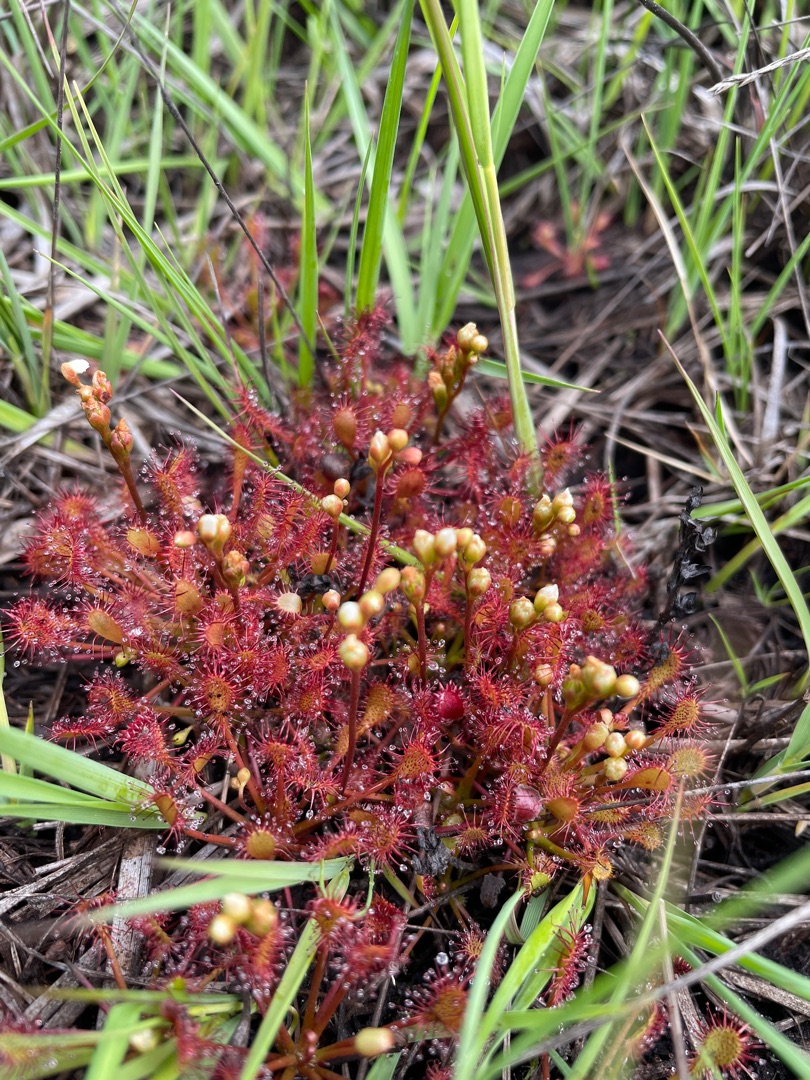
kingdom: Plantae
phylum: Tracheophyta
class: Magnoliopsida
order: Caryophyllales
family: Droseraceae
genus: Drosera
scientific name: Drosera intermedia
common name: Liden soldug
